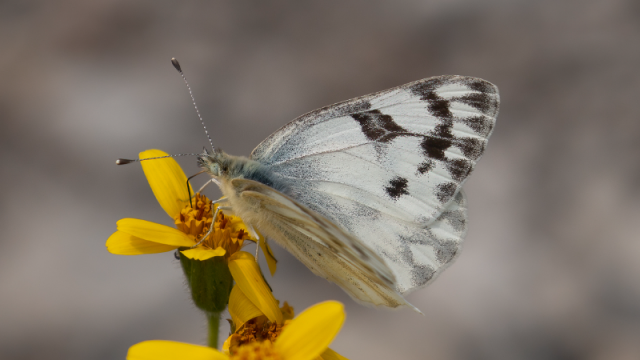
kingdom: Animalia
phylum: Arthropoda
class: Insecta
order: Lepidoptera
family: Pieridae
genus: Pontia
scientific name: Pontia occidentalis
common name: Western White
